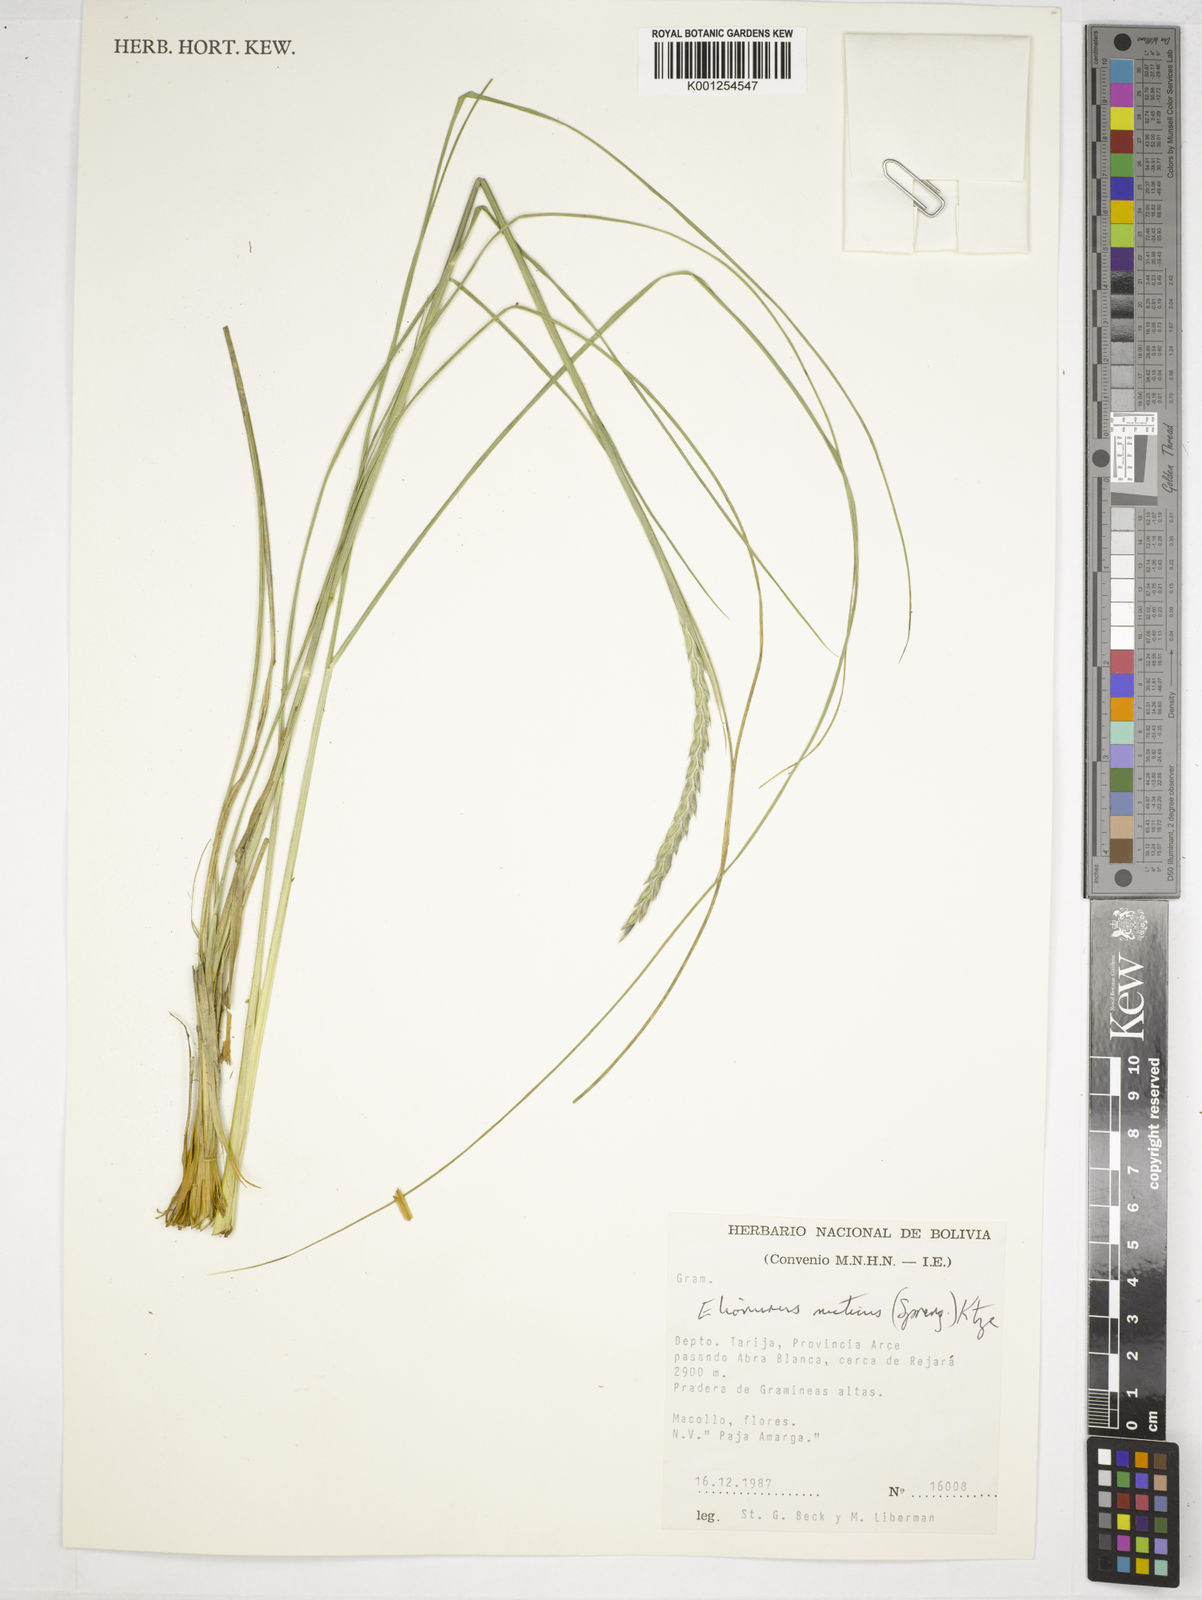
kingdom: Plantae
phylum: Tracheophyta
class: Liliopsida
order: Poales
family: Poaceae
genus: Elionurus
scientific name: Elionurus muticus
